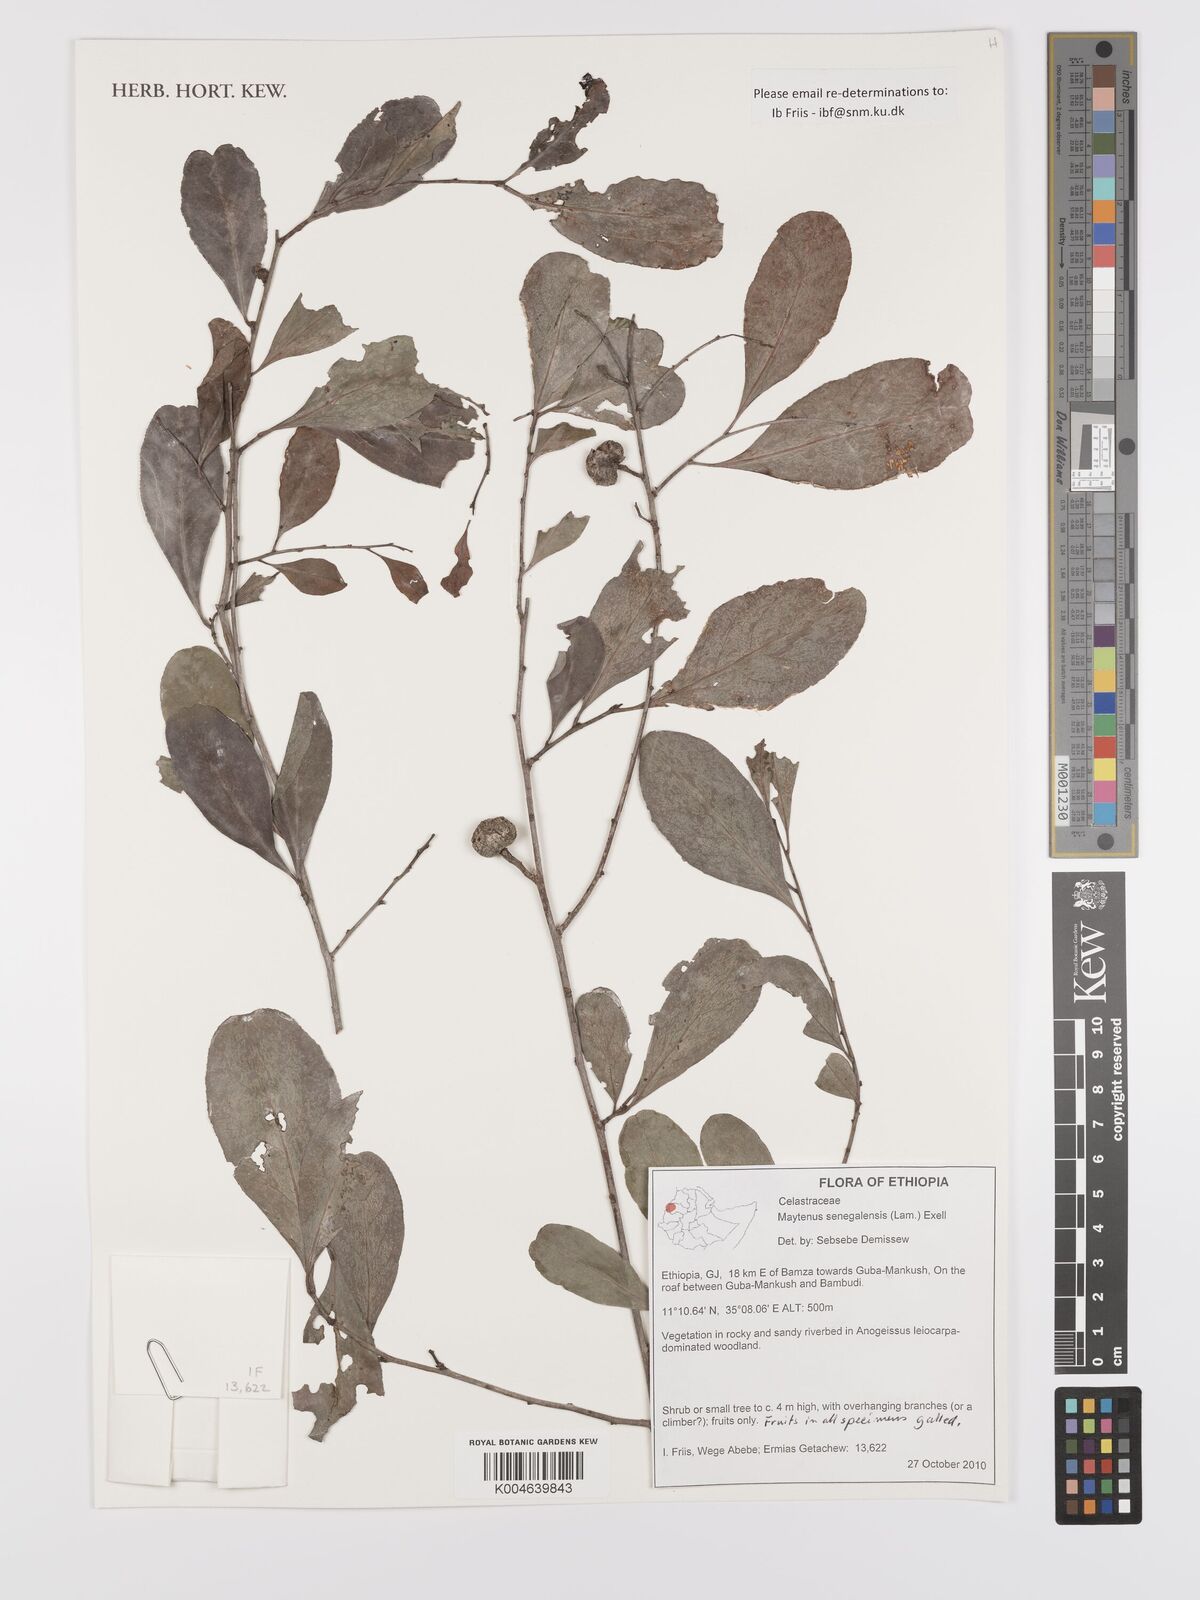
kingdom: Plantae
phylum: Tracheophyta
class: Magnoliopsida
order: Celastrales
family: Celastraceae
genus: Gymnosporia
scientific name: Gymnosporia senegalensis
